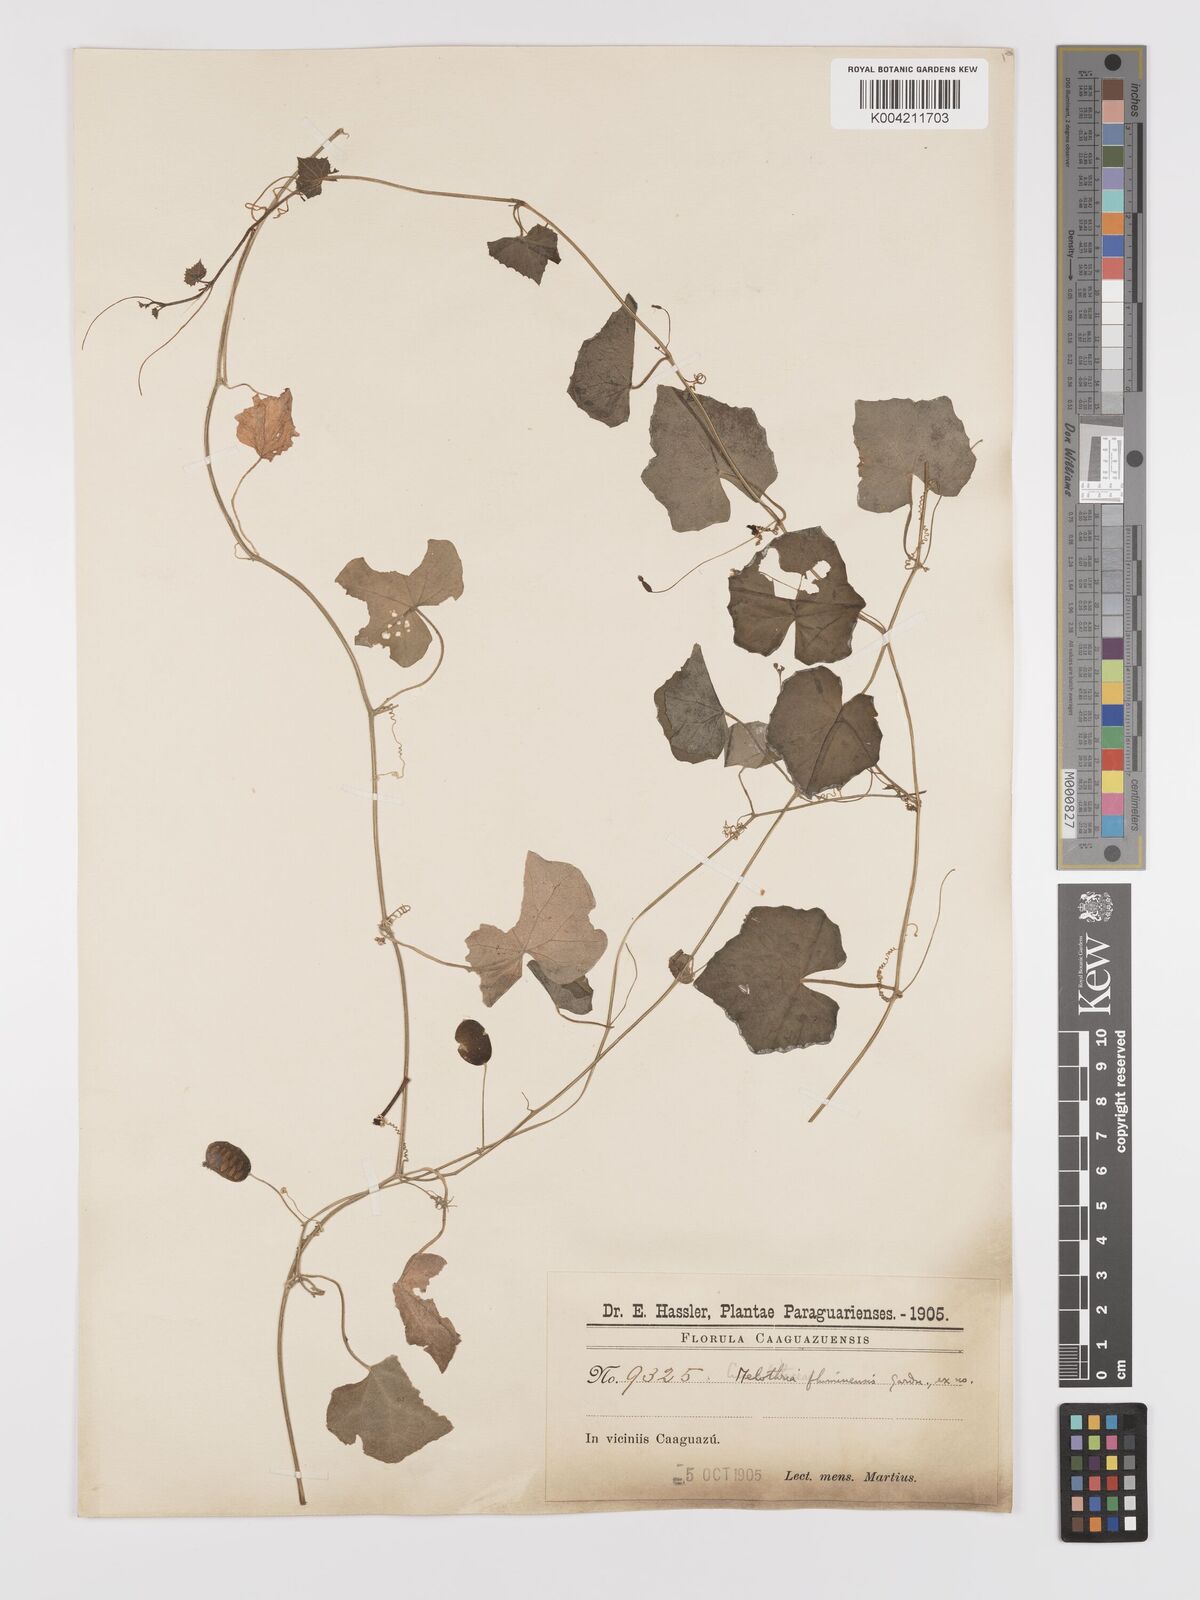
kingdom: Plantae
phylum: Tracheophyta
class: Magnoliopsida
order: Cucurbitales
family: Cucurbitaceae
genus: Melothria
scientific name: Melothria
